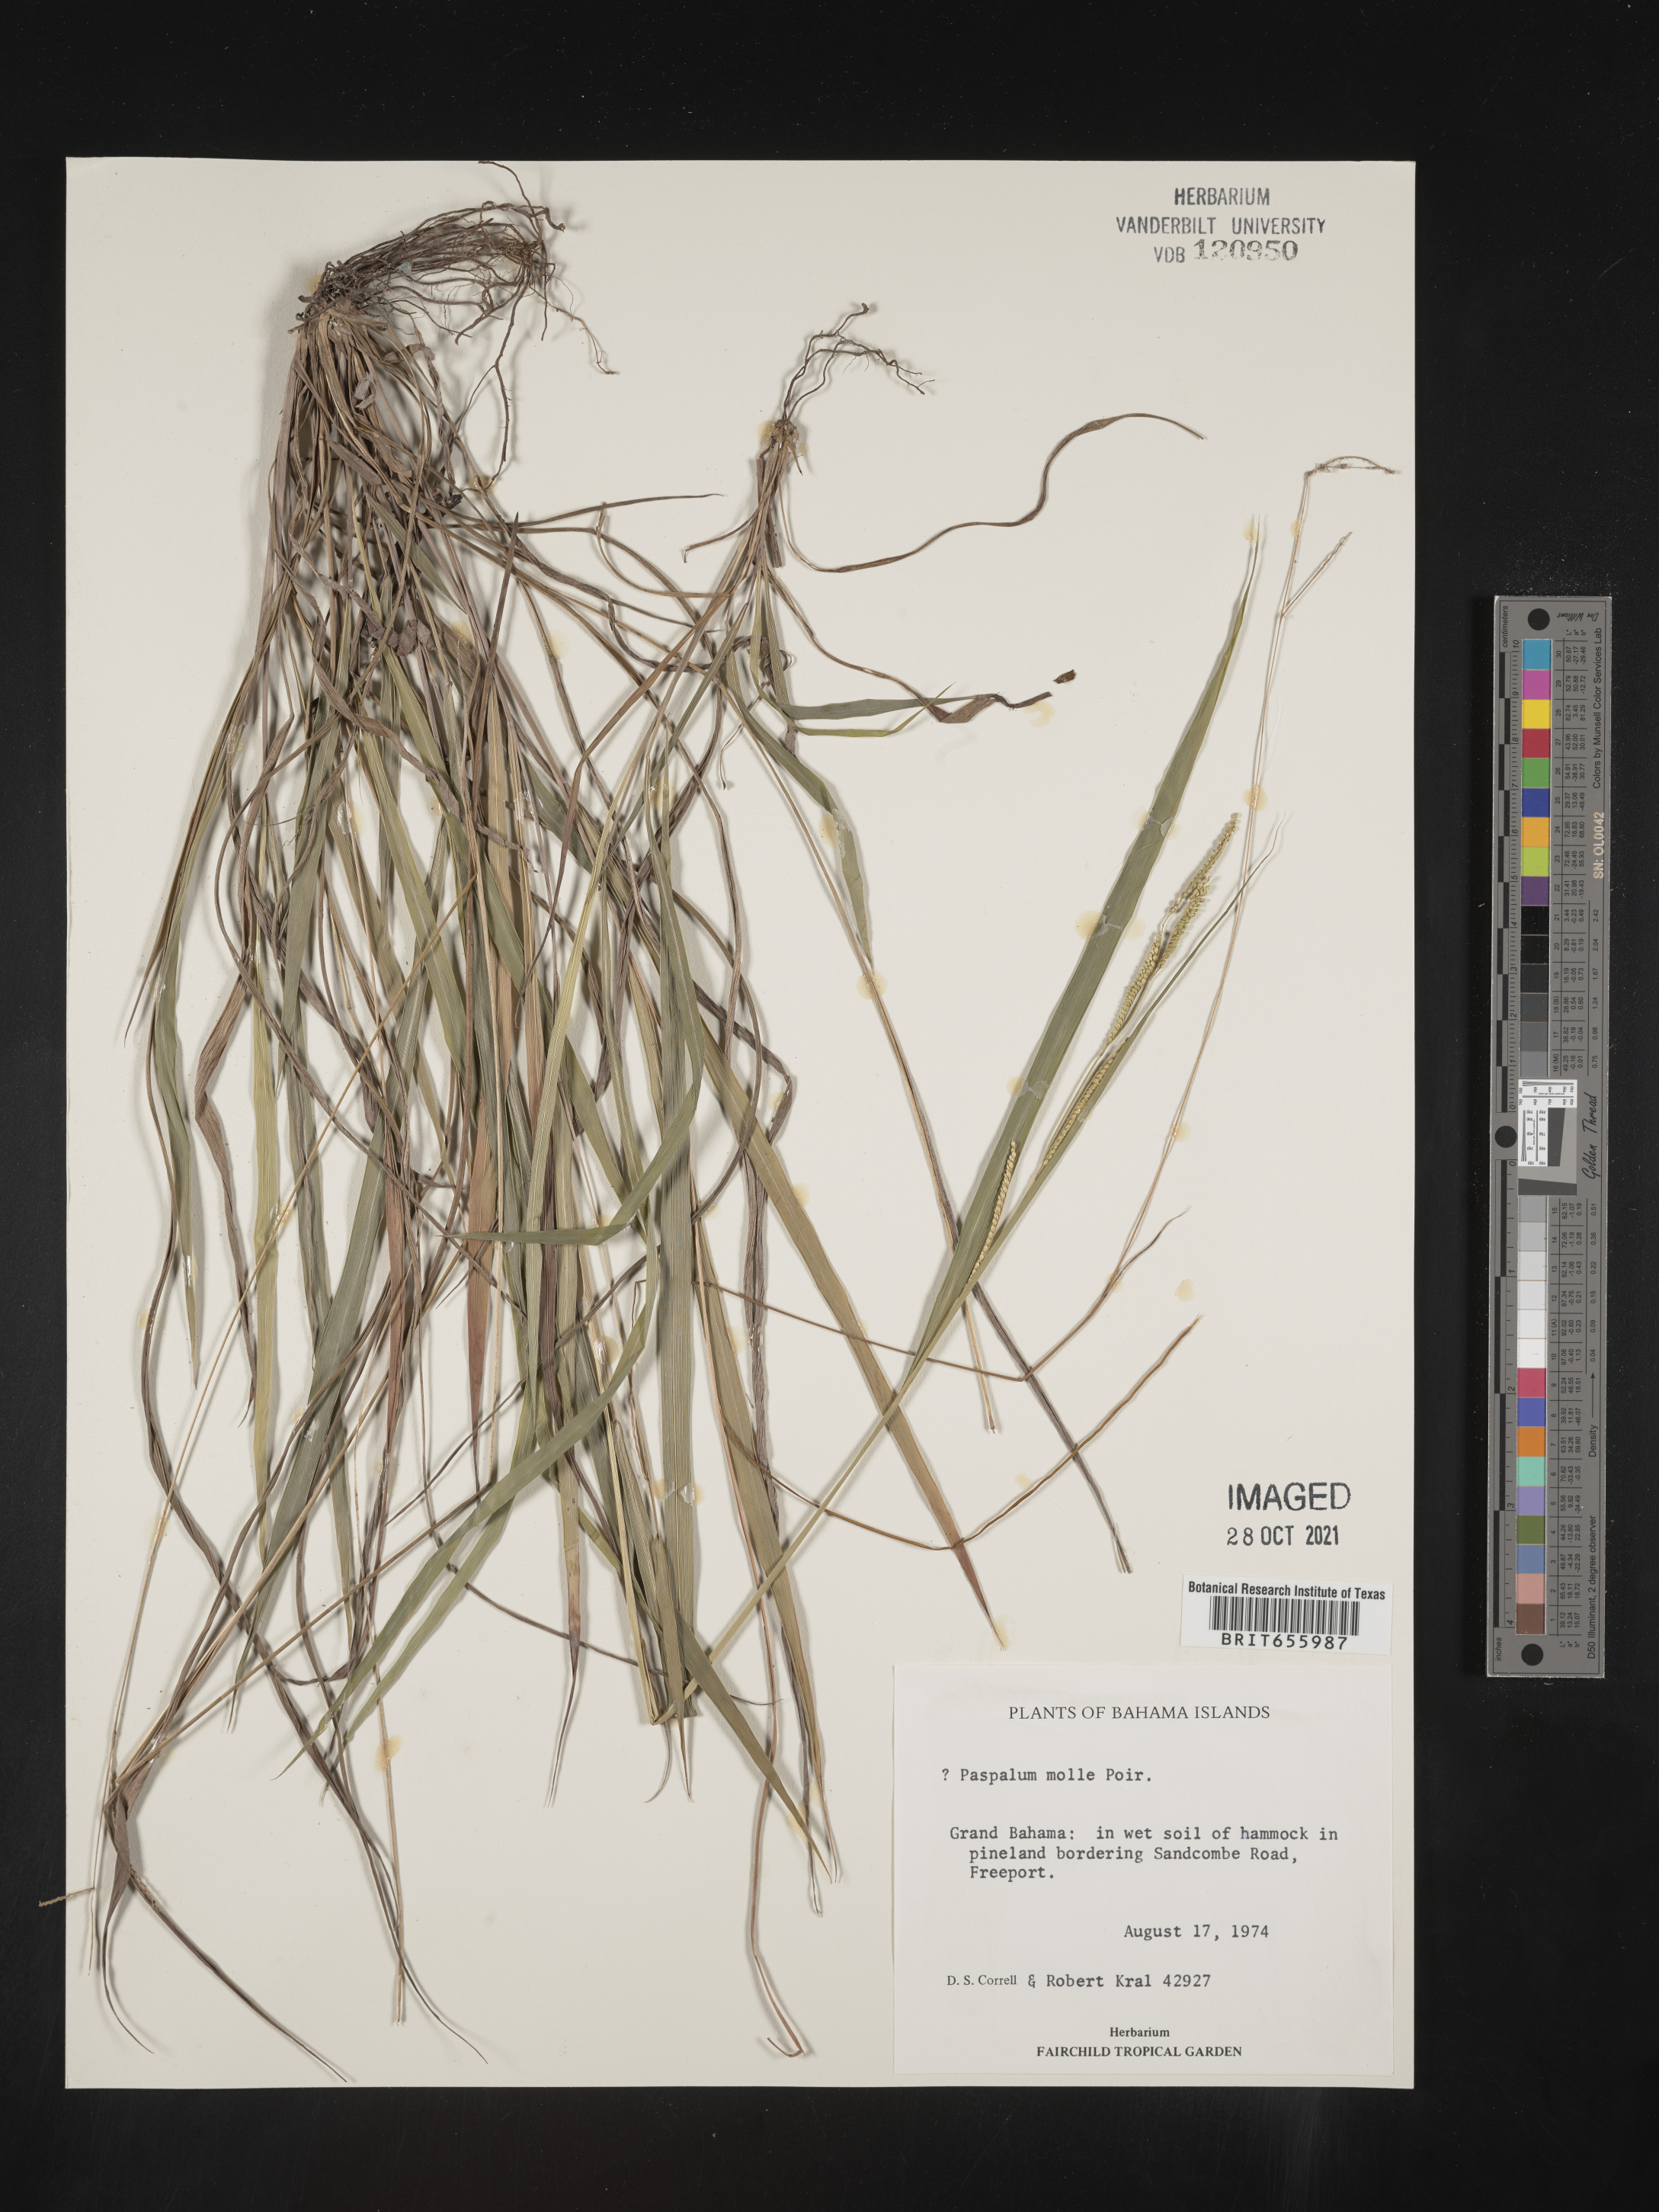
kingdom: Plantae
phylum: Tracheophyta
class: Liliopsida
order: Poales
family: Poaceae
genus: Paspalum
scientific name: Paspalum
